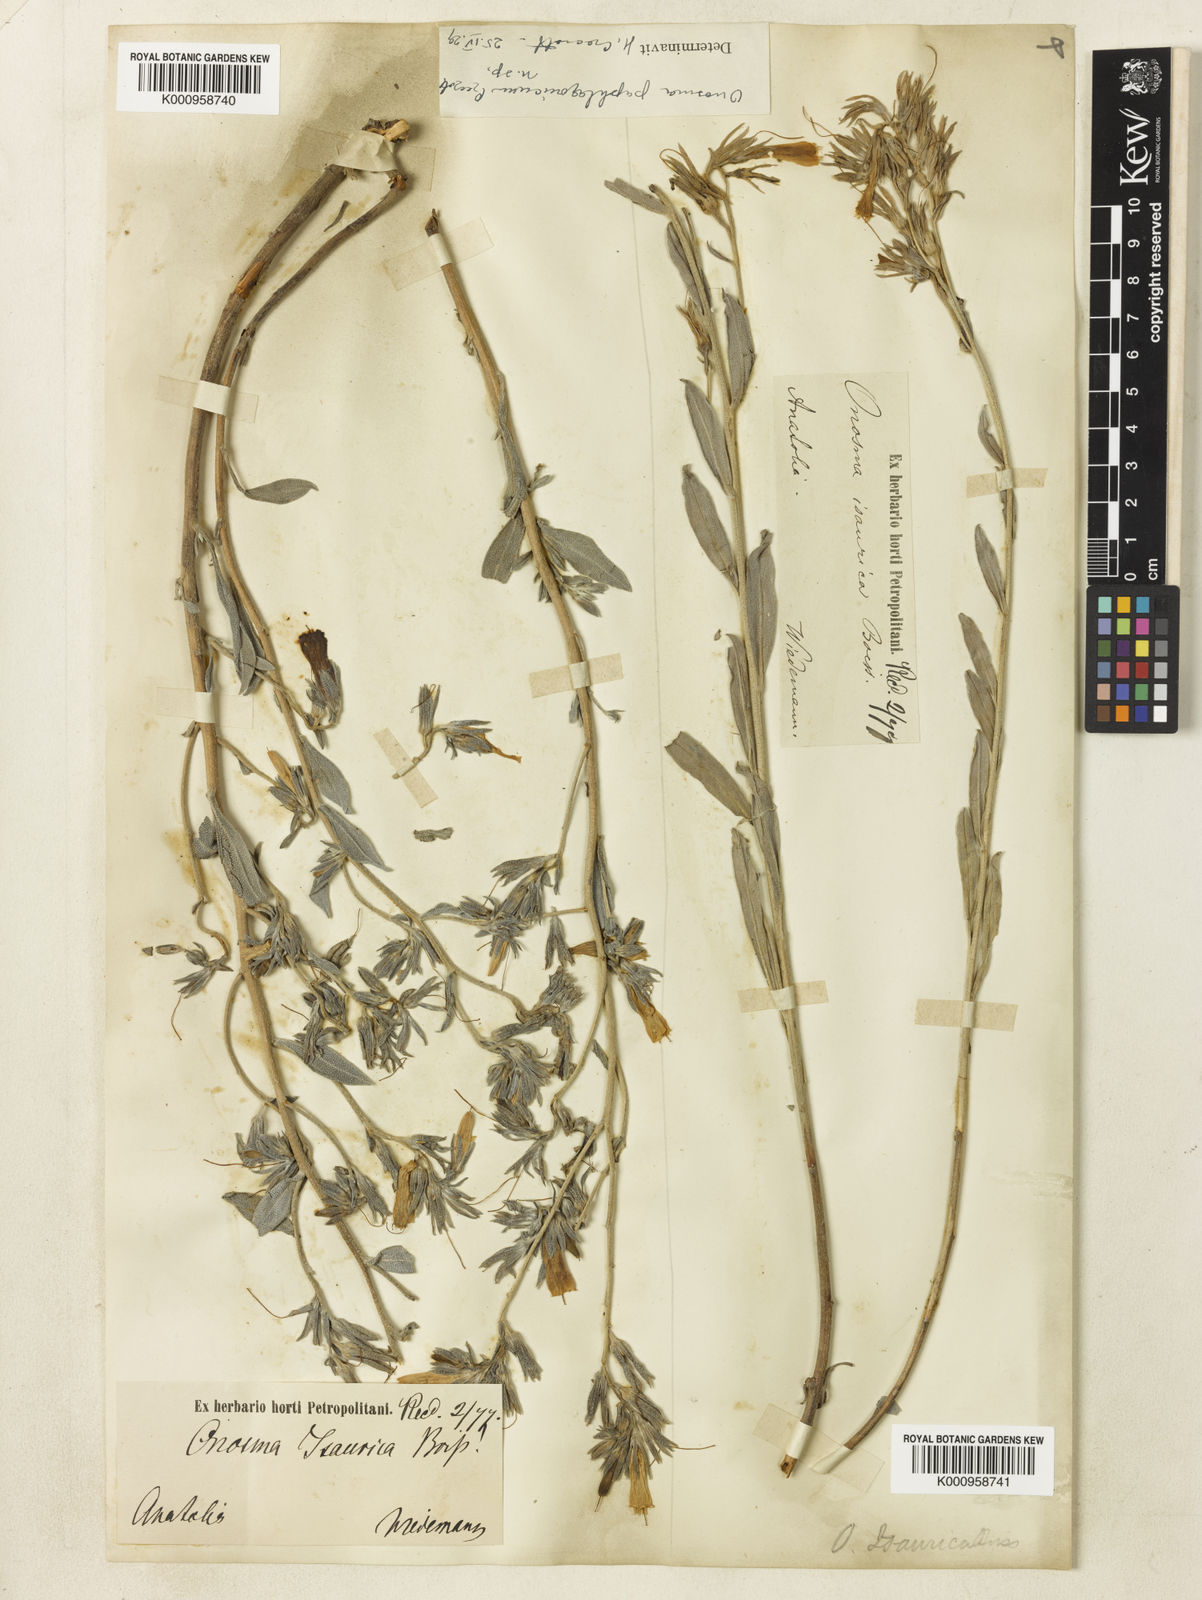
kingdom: Plantae
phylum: Tracheophyta
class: Magnoliopsida
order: Boraginales
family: Boraginaceae
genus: Onosma
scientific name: Onosma briquetii
